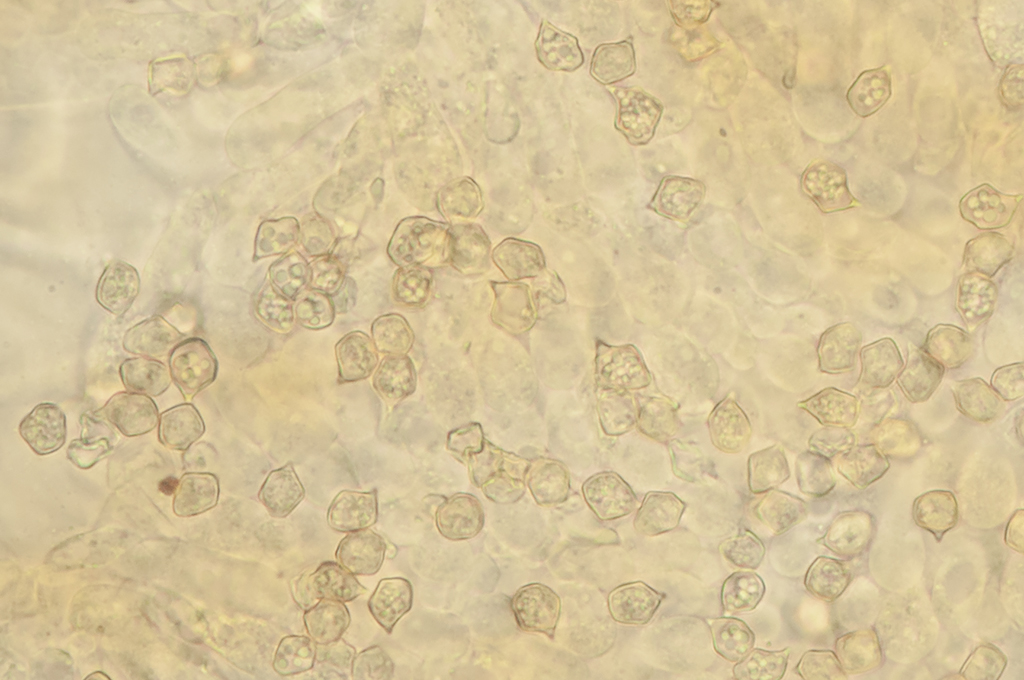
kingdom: Fungi
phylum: Basidiomycota
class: Agaricomycetes
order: Agaricales
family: Entolomataceae
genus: Entoloma
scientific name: Entoloma
